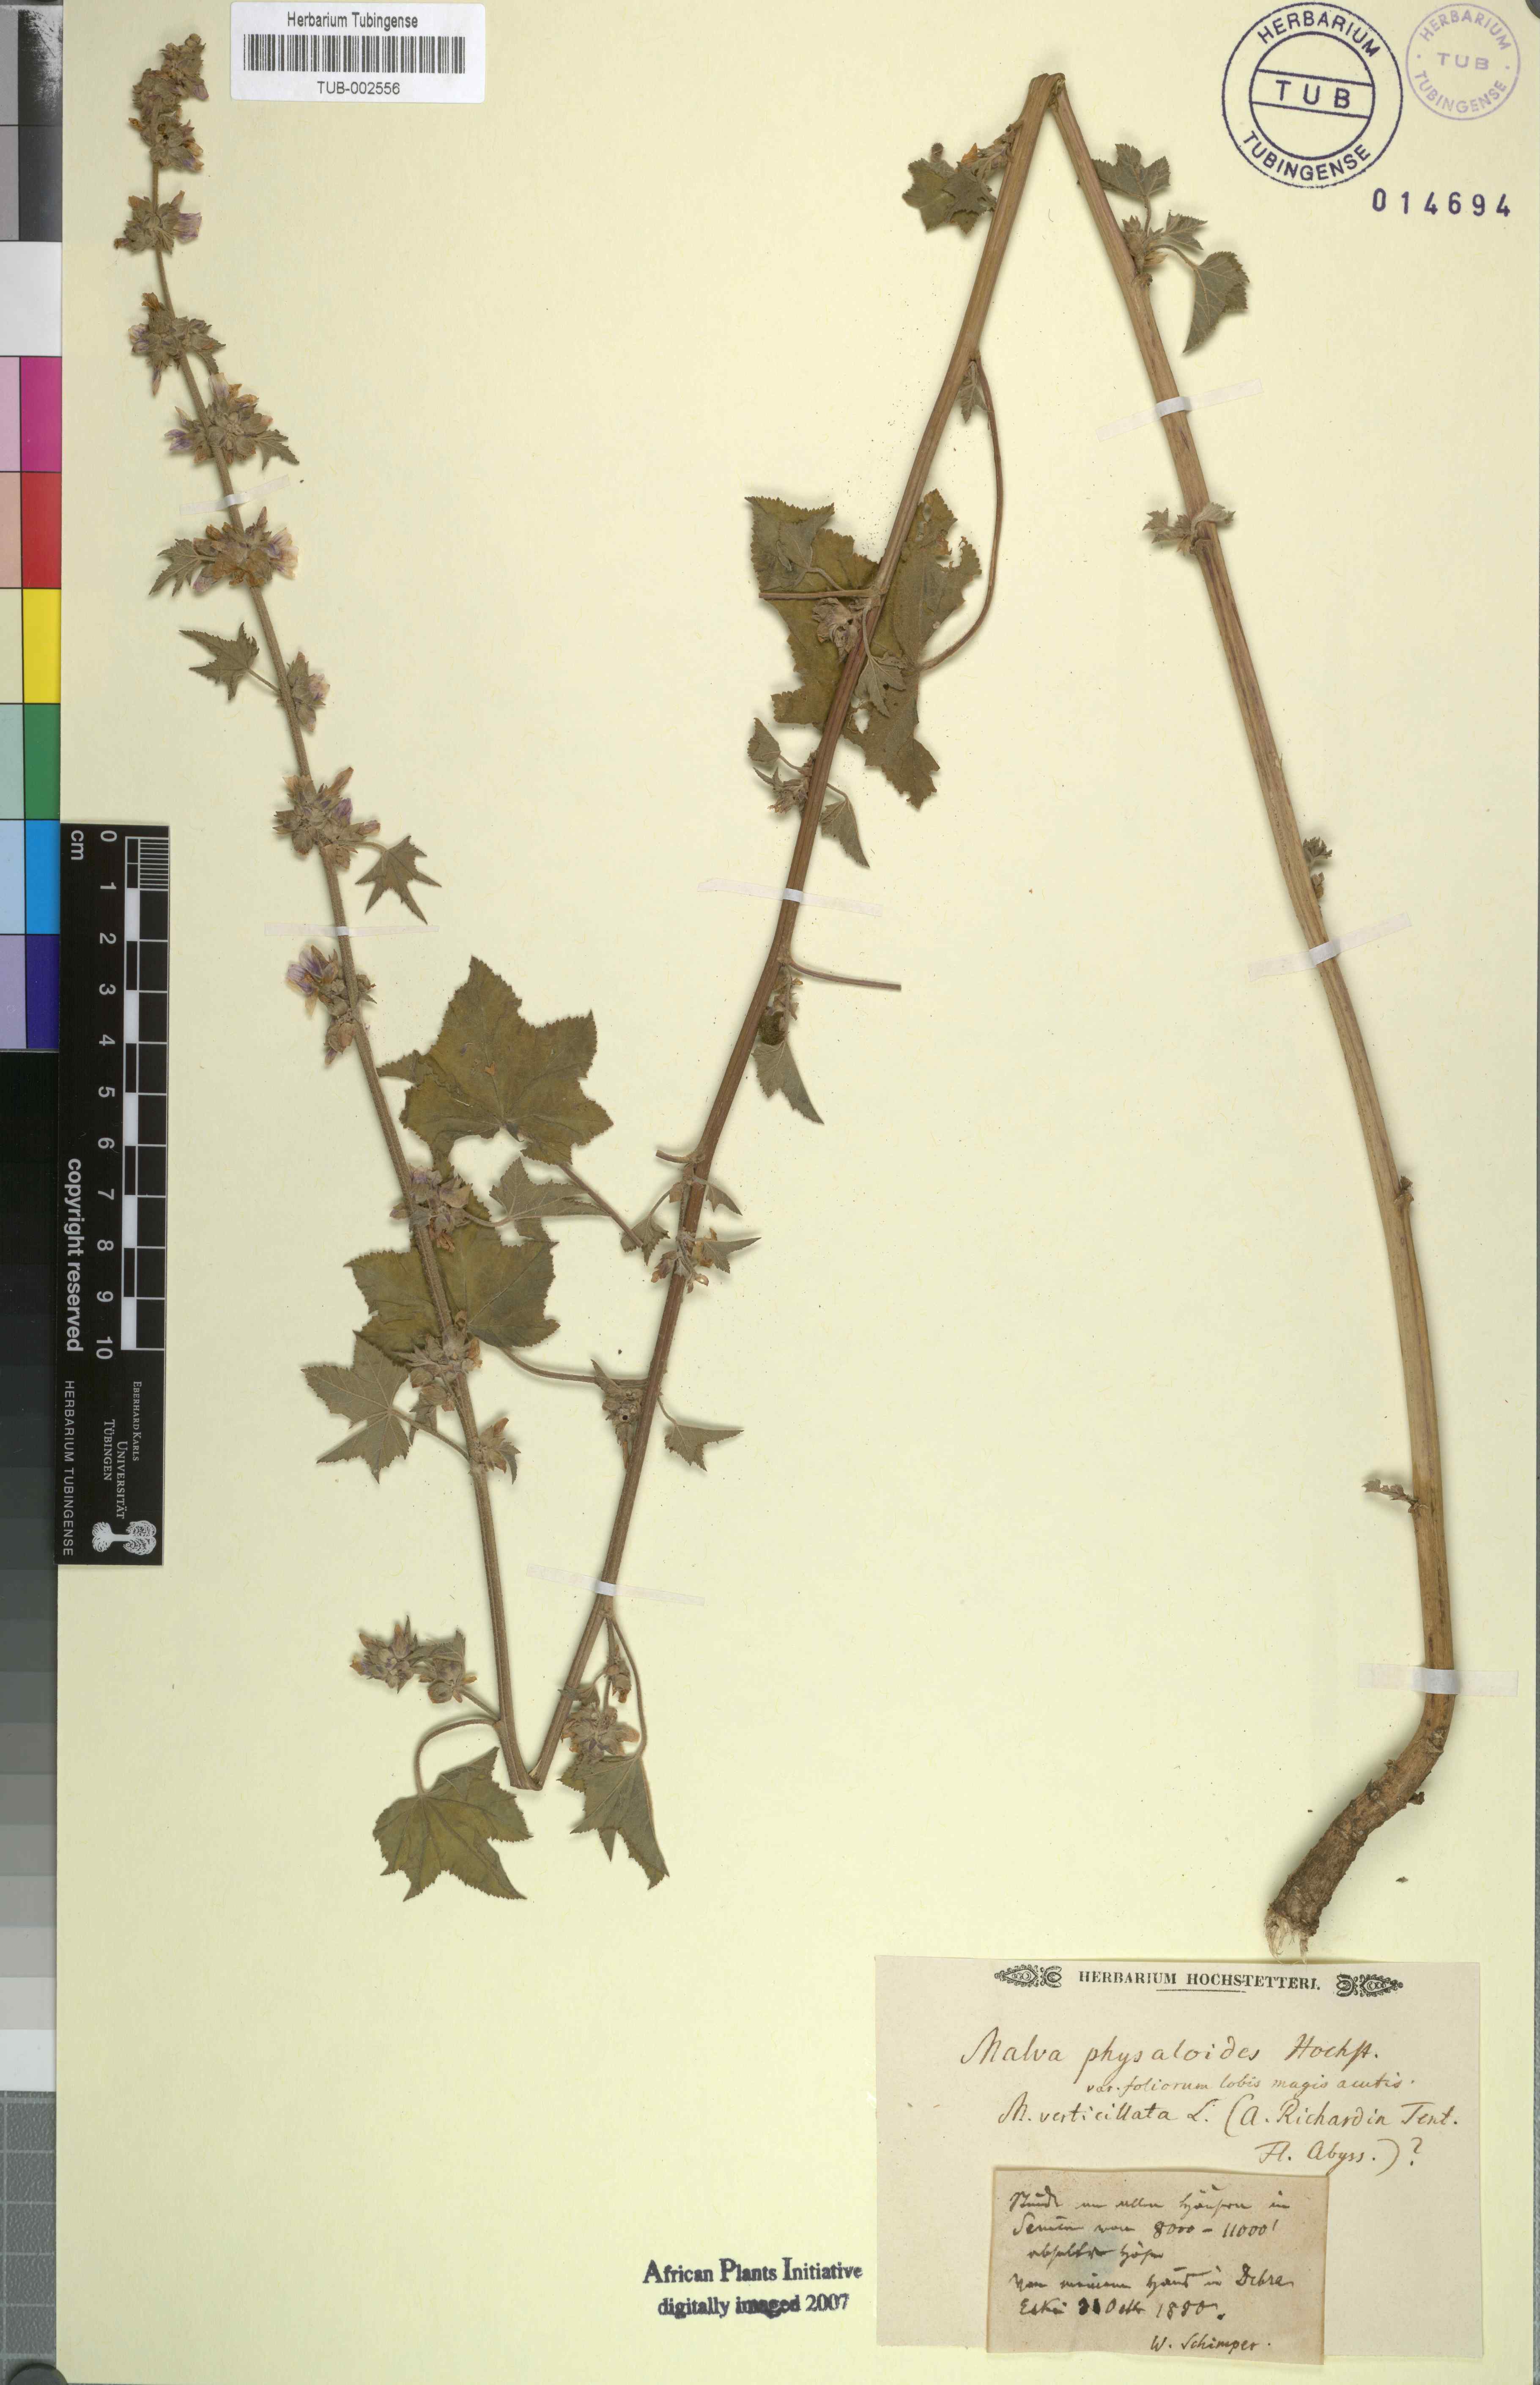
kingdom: Plantae
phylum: Tracheophyta
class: Magnoliopsida
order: Malvales
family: Malvaceae
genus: Malva
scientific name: Malva
